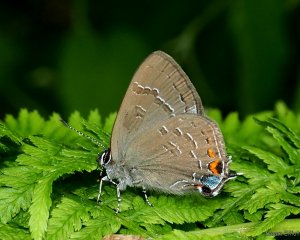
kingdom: Animalia
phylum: Arthropoda
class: Insecta
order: Lepidoptera
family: Lycaenidae
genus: Satyrium
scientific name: Satyrium calanus
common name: Banded Hairstreak
